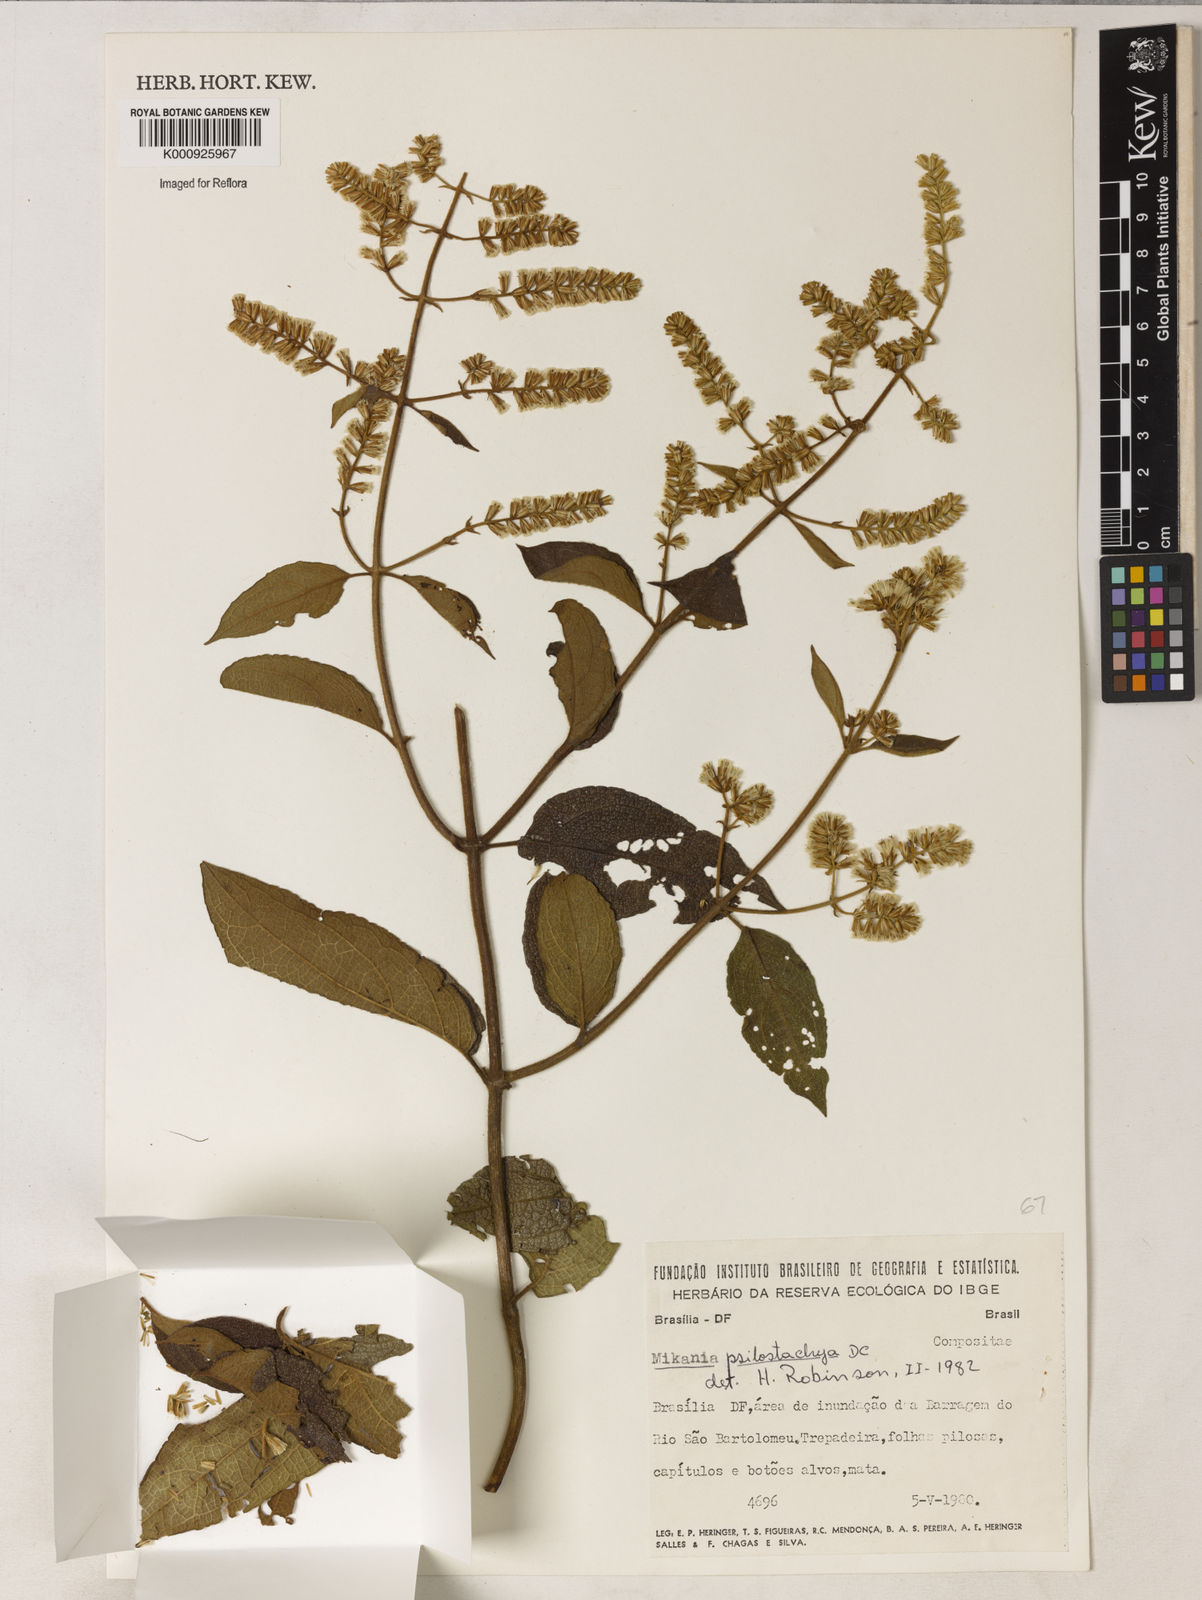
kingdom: Plantae
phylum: Tracheophyta
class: Magnoliopsida
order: Asterales
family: Asteraceae
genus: Mikania
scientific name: Mikania psilostachya
